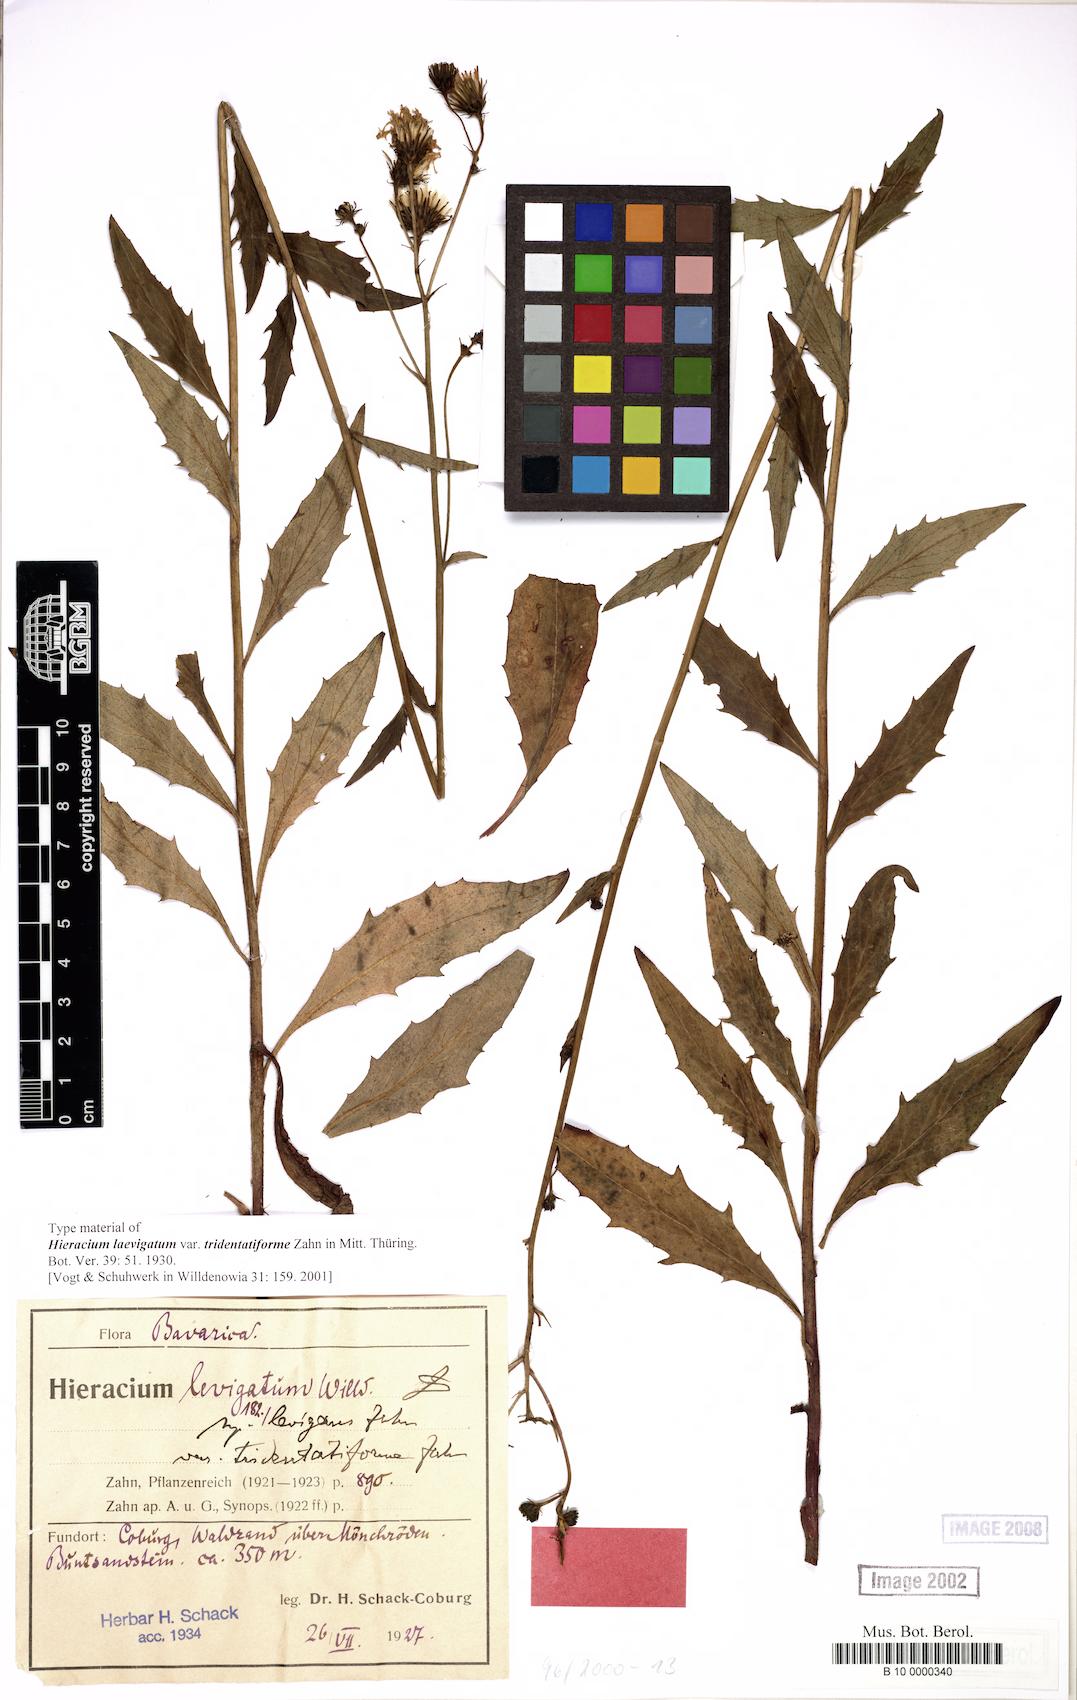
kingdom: Plantae
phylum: Tracheophyta
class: Magnoliopsida
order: Asterales
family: Asteraceae
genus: Hieracium
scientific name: Hieracium laevigatum
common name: Smooth hawkweed
